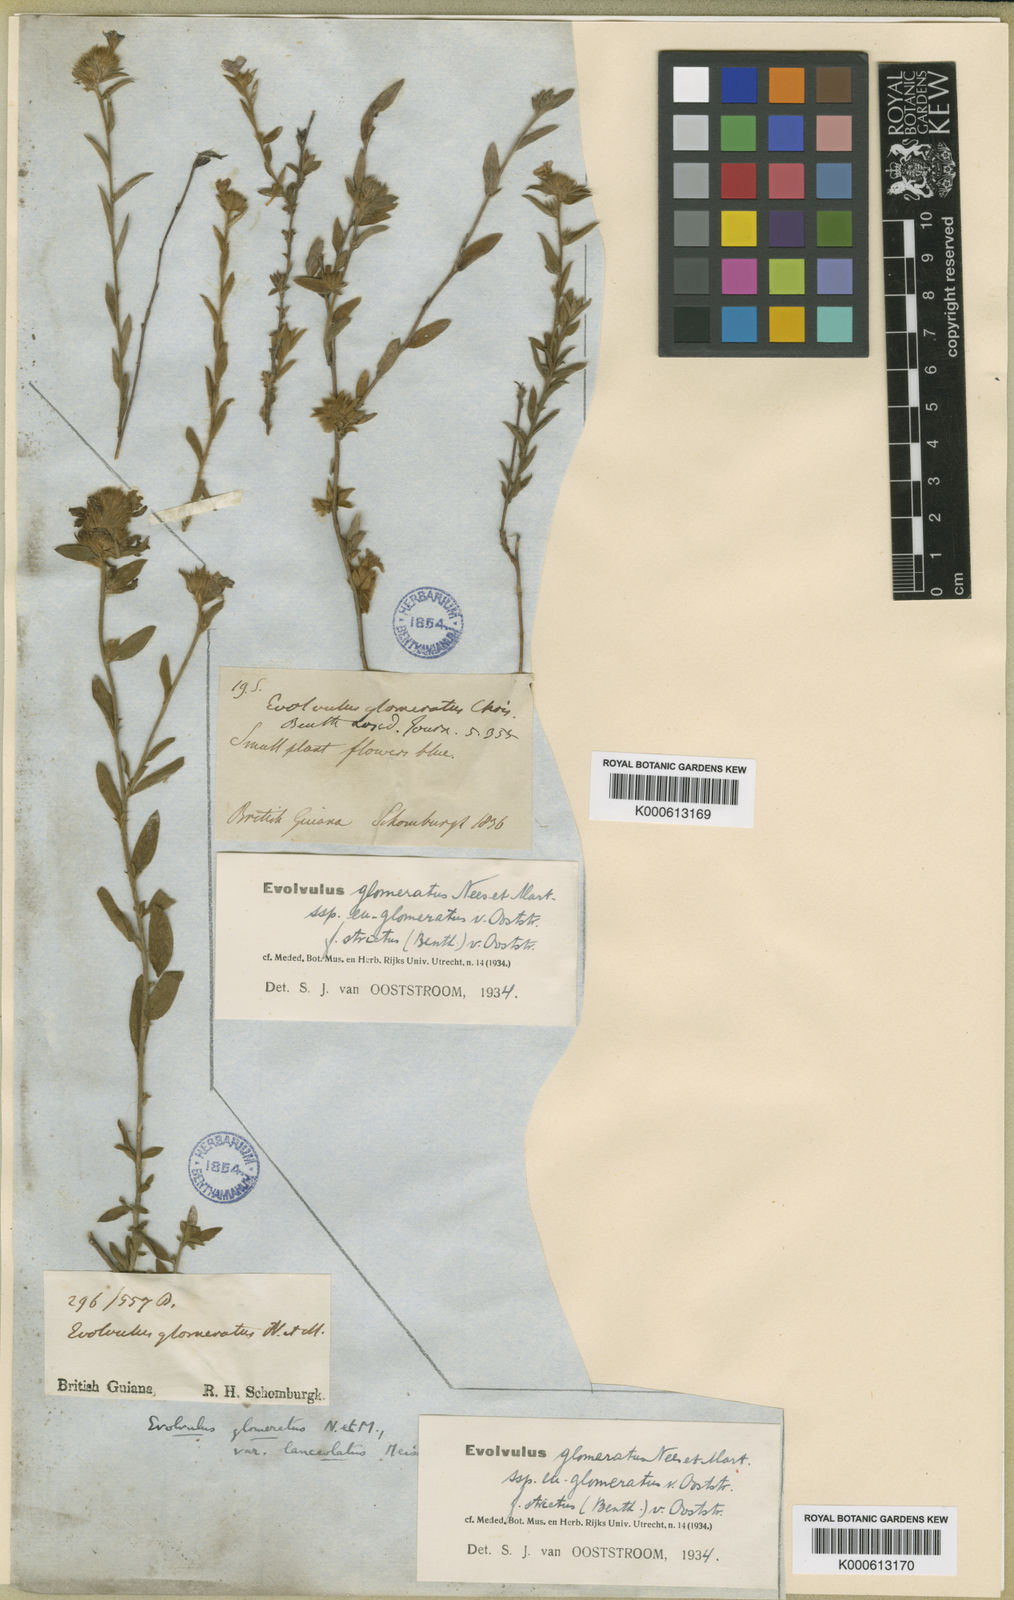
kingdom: Plantae
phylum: Tracheophyta
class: Magnoliopsida
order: Solanales
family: Convolvulaceae
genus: Evolvulus
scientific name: Evolvulus glomeratus
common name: Brazilian dwarf morning-glory
